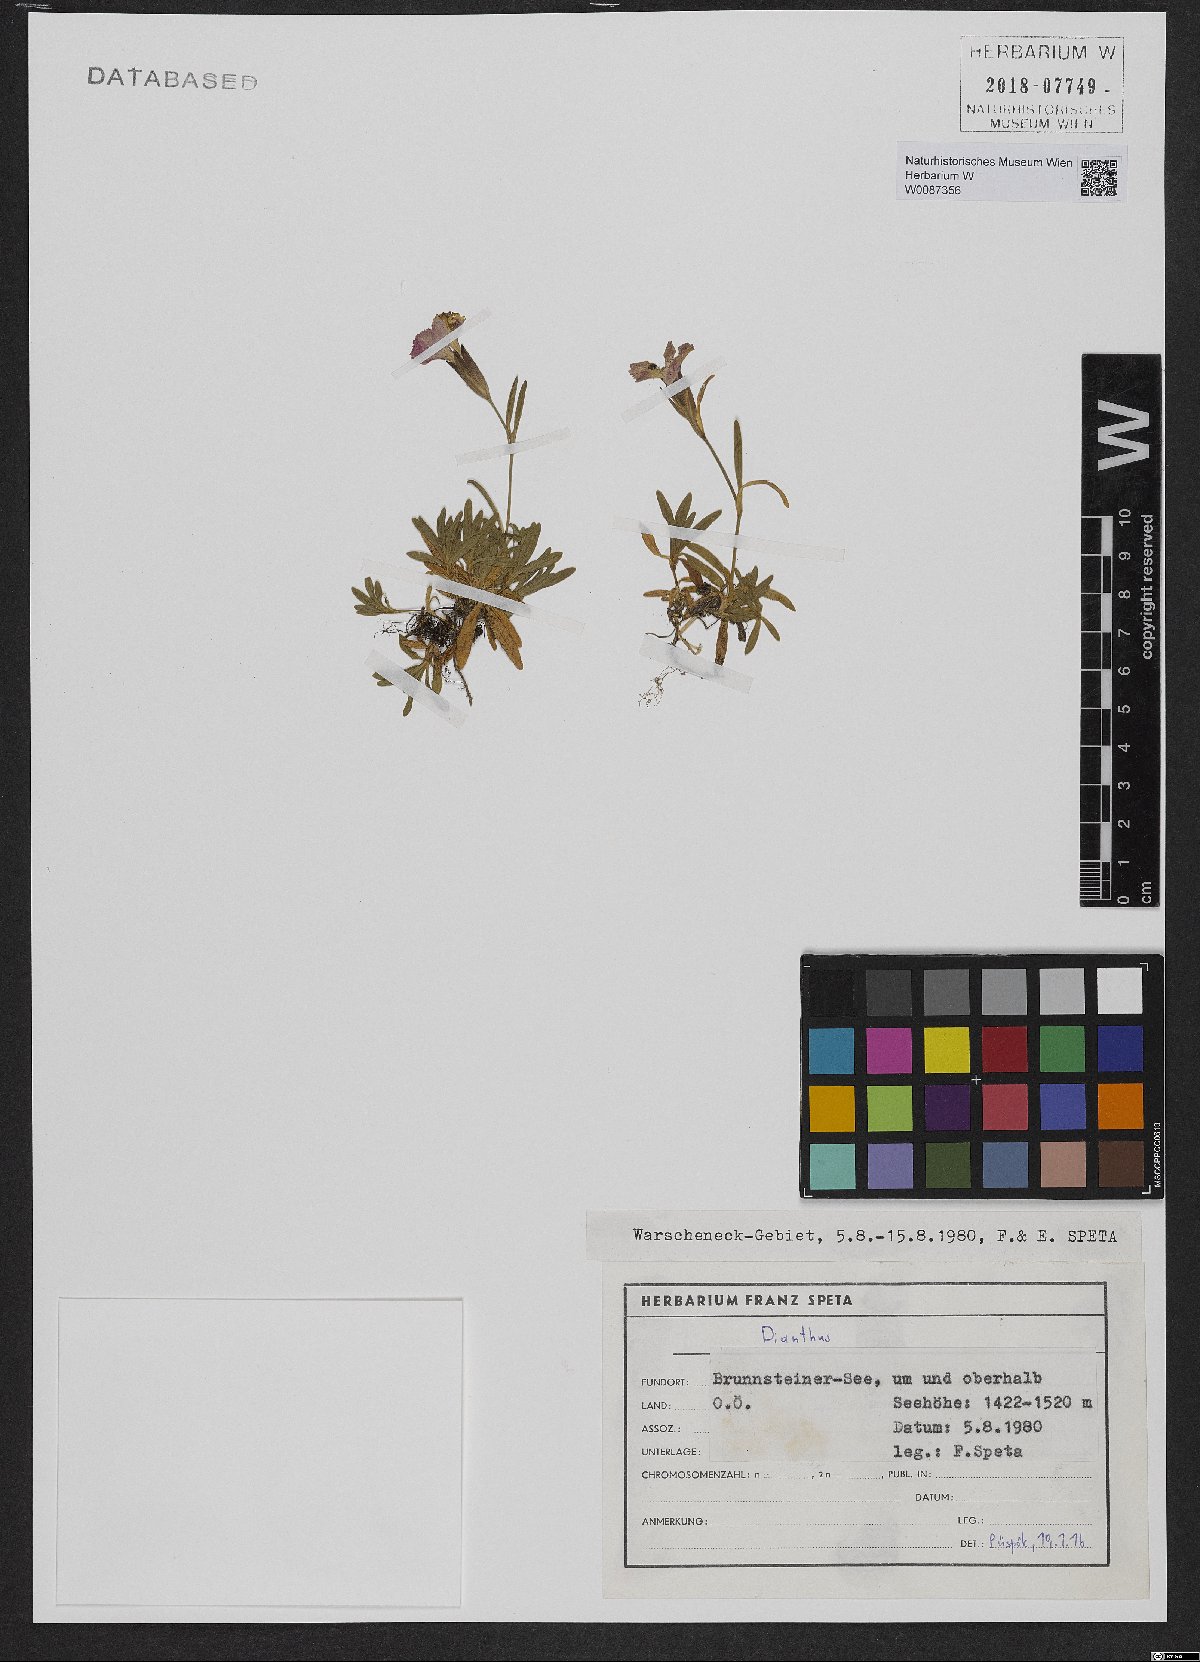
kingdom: Plantae
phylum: Tracheophyta
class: Magnoliopsida
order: Caryophyllales
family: Caryophyllaceae
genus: Dianthus
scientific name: Dianthus alpinus
